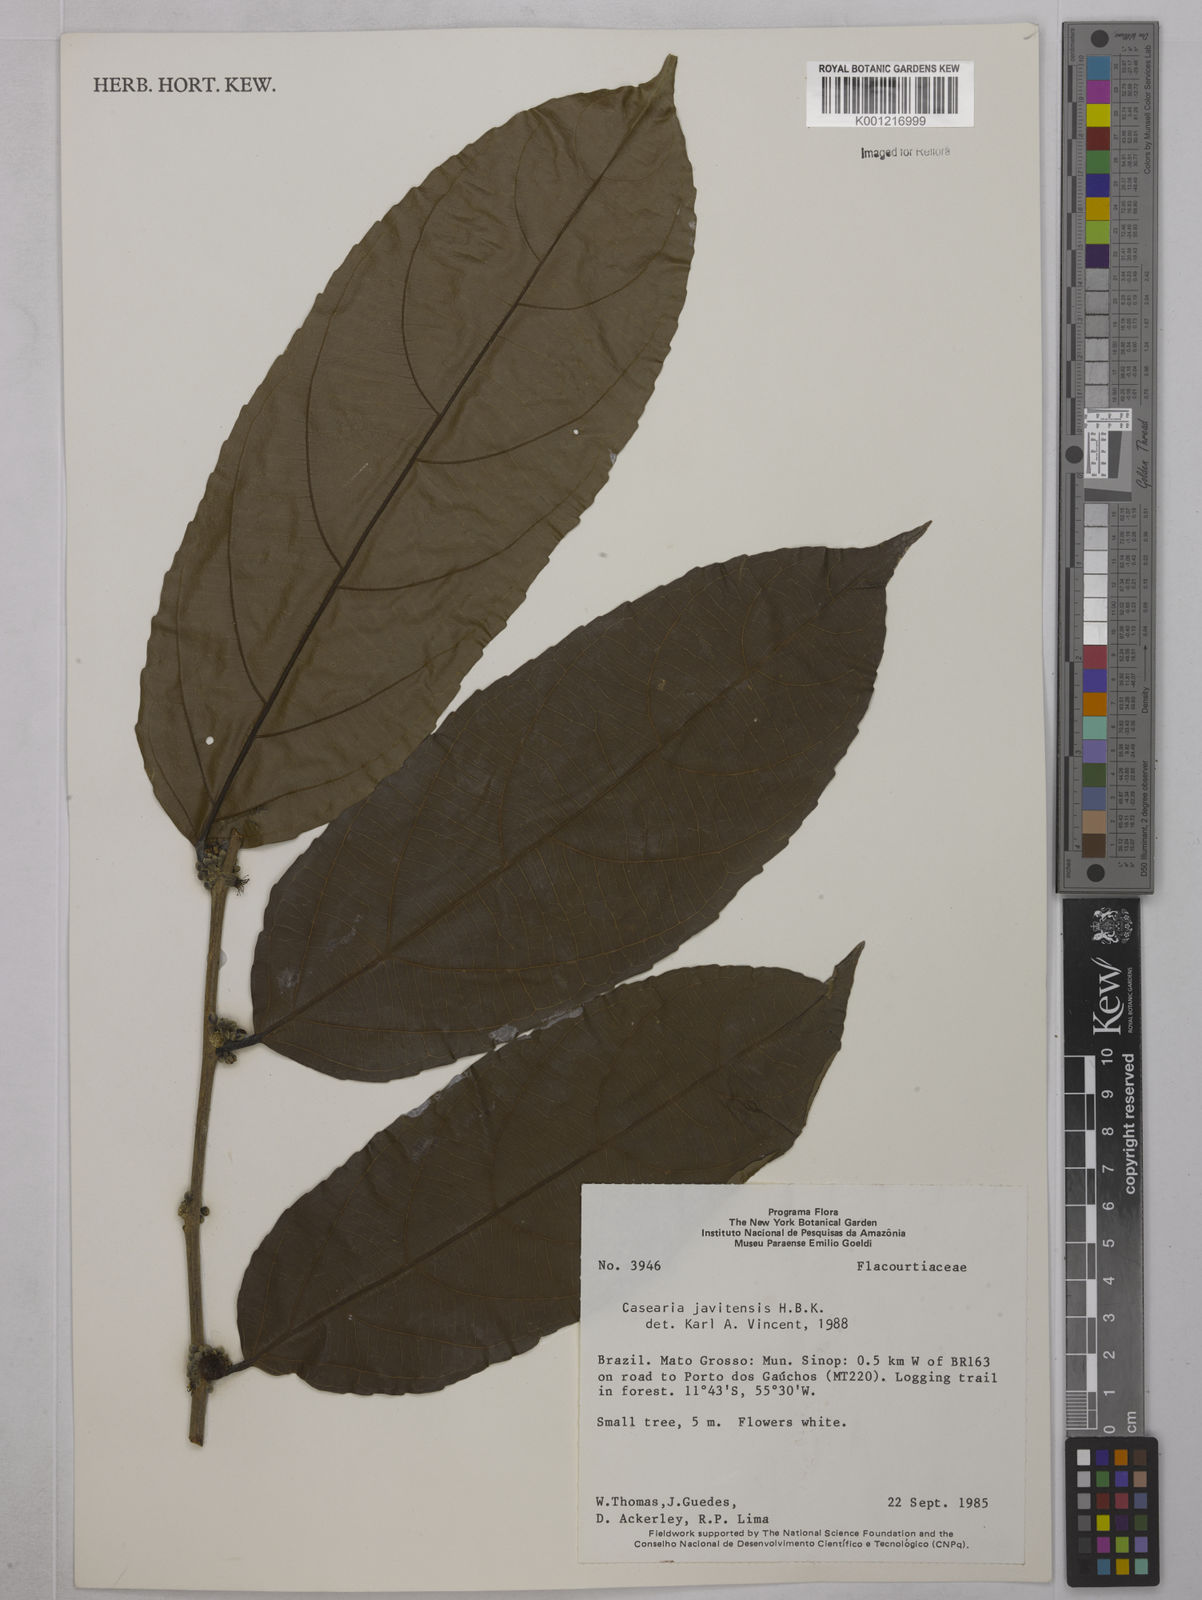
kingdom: Plantae
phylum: Tracheophyta
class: Magnoliopsida
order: Malpighiales
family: Salicaceae
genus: Piparea
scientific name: Piparea multiflora
